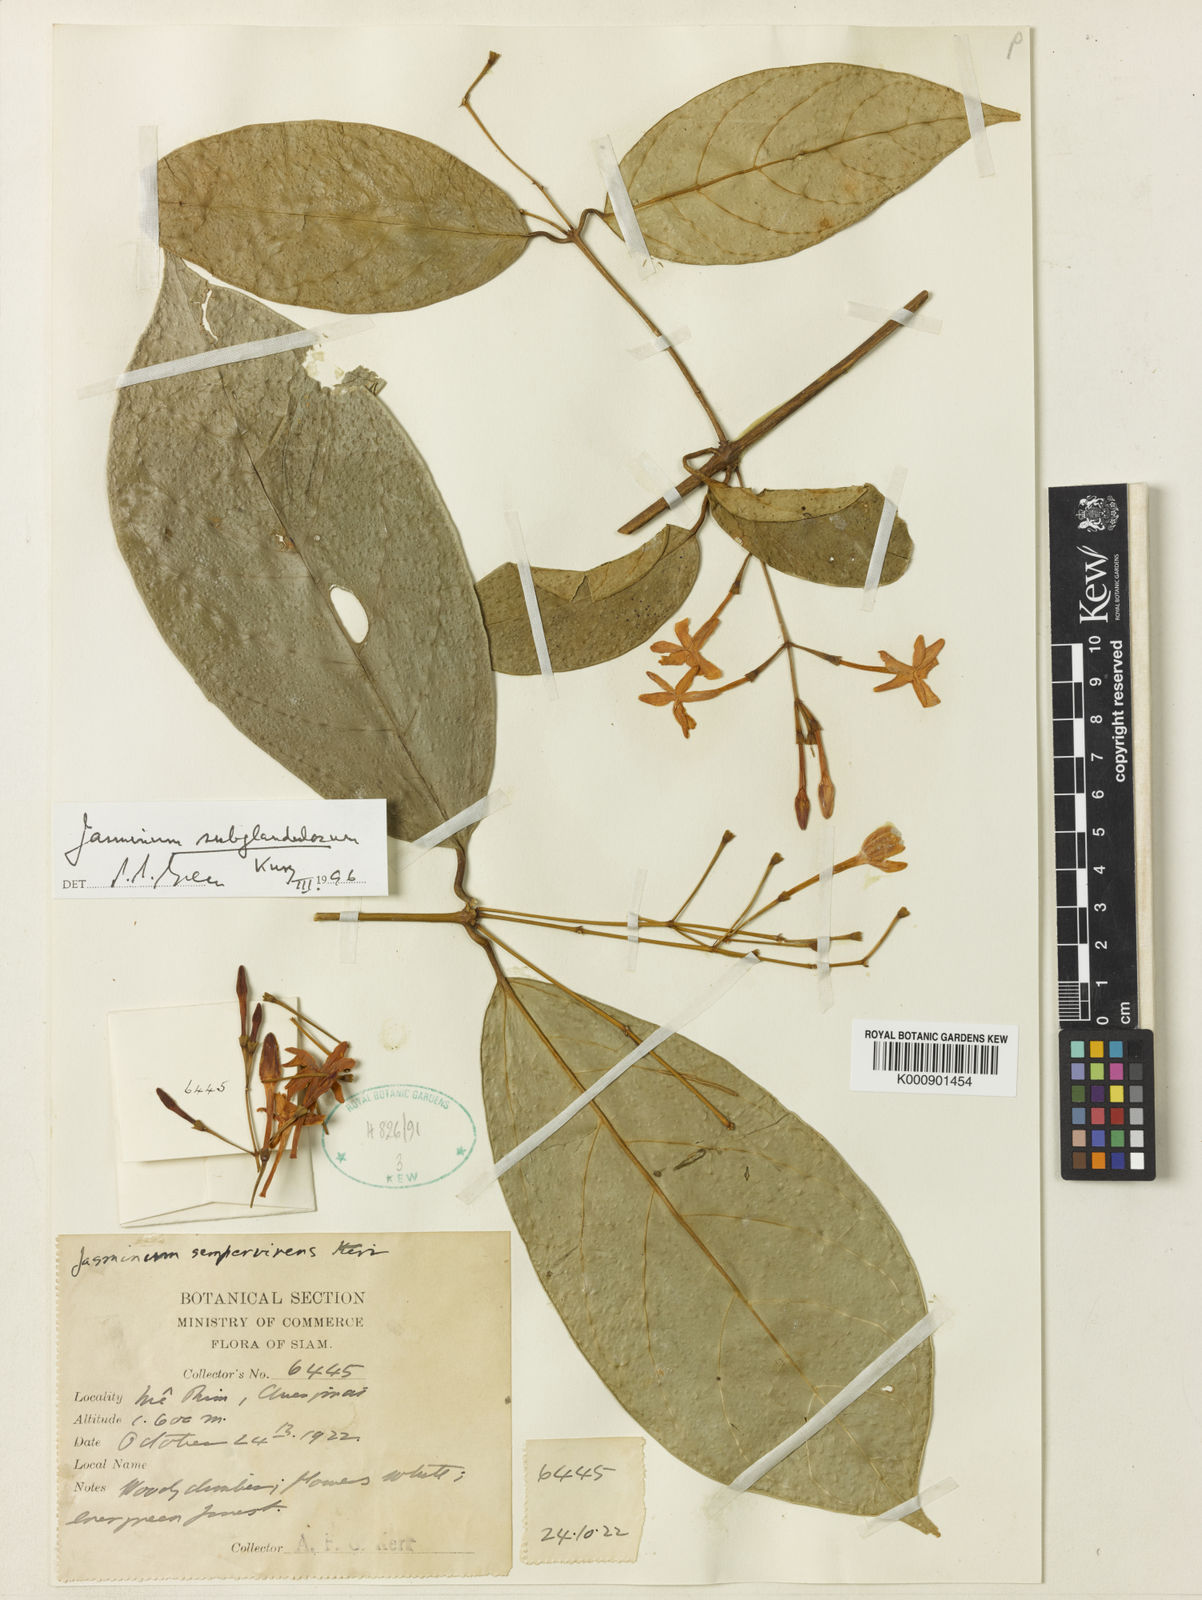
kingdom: Plantae
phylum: Tracheophyta
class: Magnoliopsida
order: Lamiales
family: Oleaceae
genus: Jasminum
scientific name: Jasminum subglandulosum
